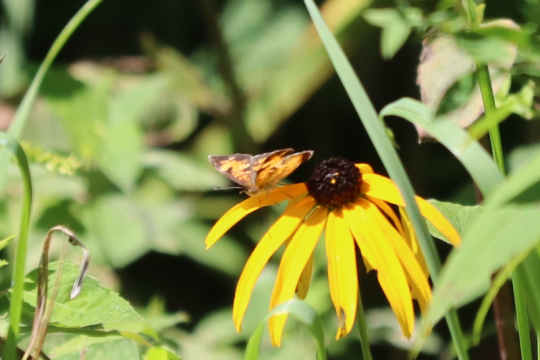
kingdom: Animalia
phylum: Arthropoda
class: Insecta
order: Lepidoptera
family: Nymphalidae
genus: Phyciodes
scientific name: Phyciodes
